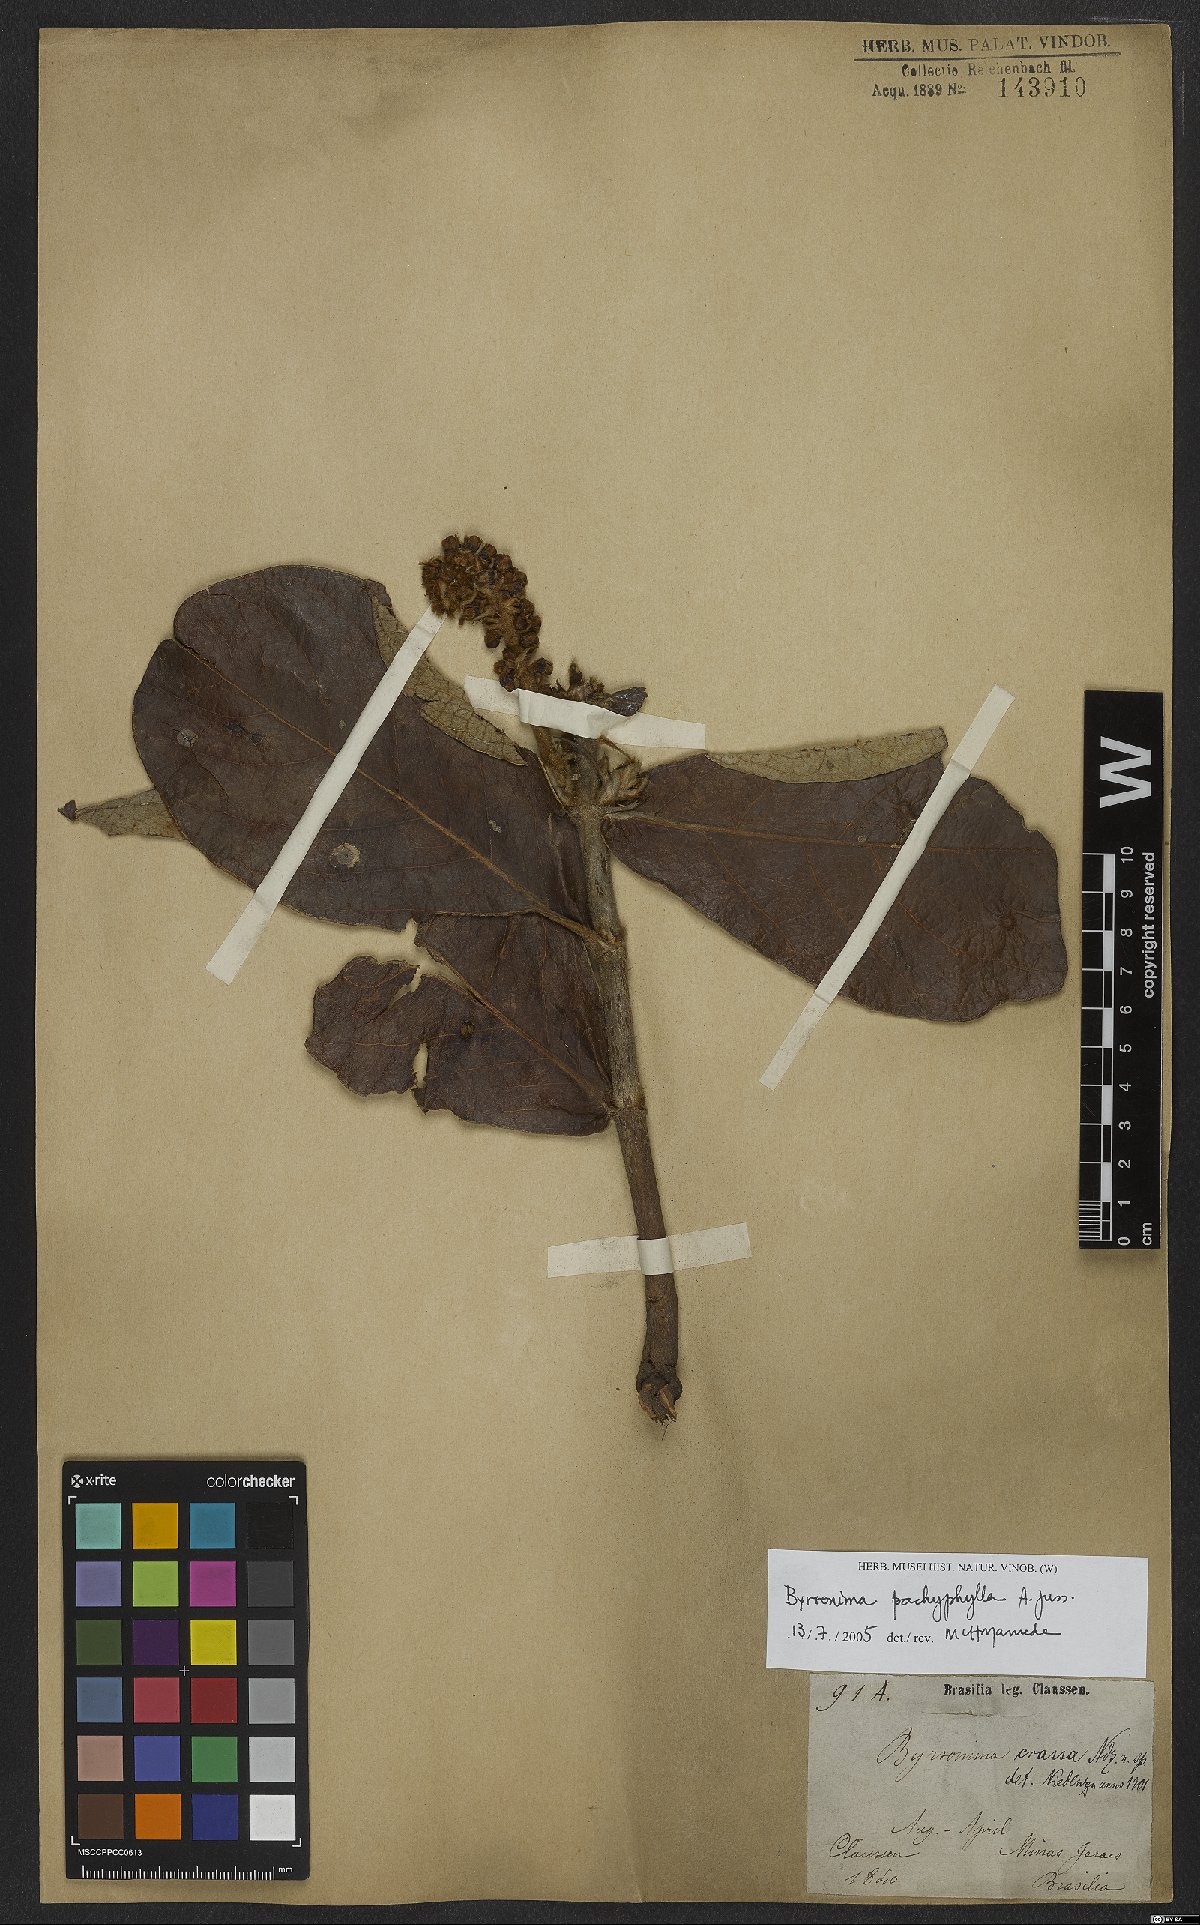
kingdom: Plantae
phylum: Tracheophyta
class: Magnoliopsida
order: Malpighiales
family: Malpighiaceae
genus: Byrsonima
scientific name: Byrsonima pachyphylla
